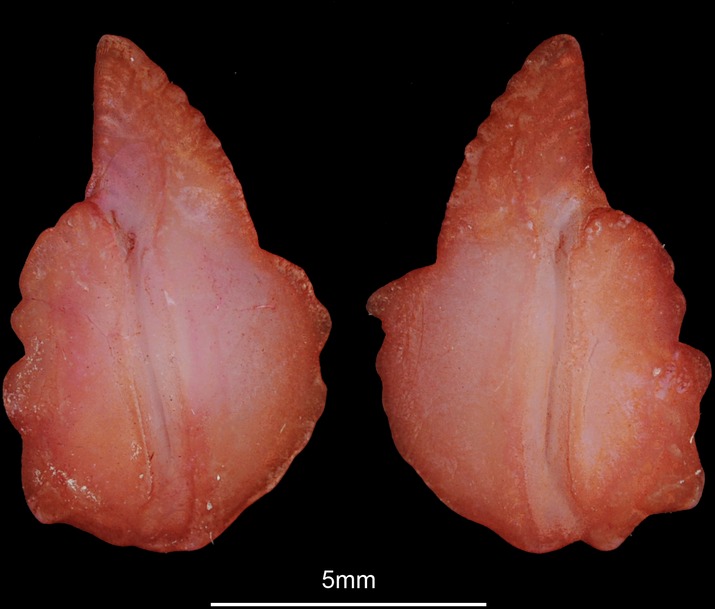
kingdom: Animalia
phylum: Chordata
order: Osmeriformes
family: Argentinidae
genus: Argentina
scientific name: Argentina silus
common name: Atlantic argentine
